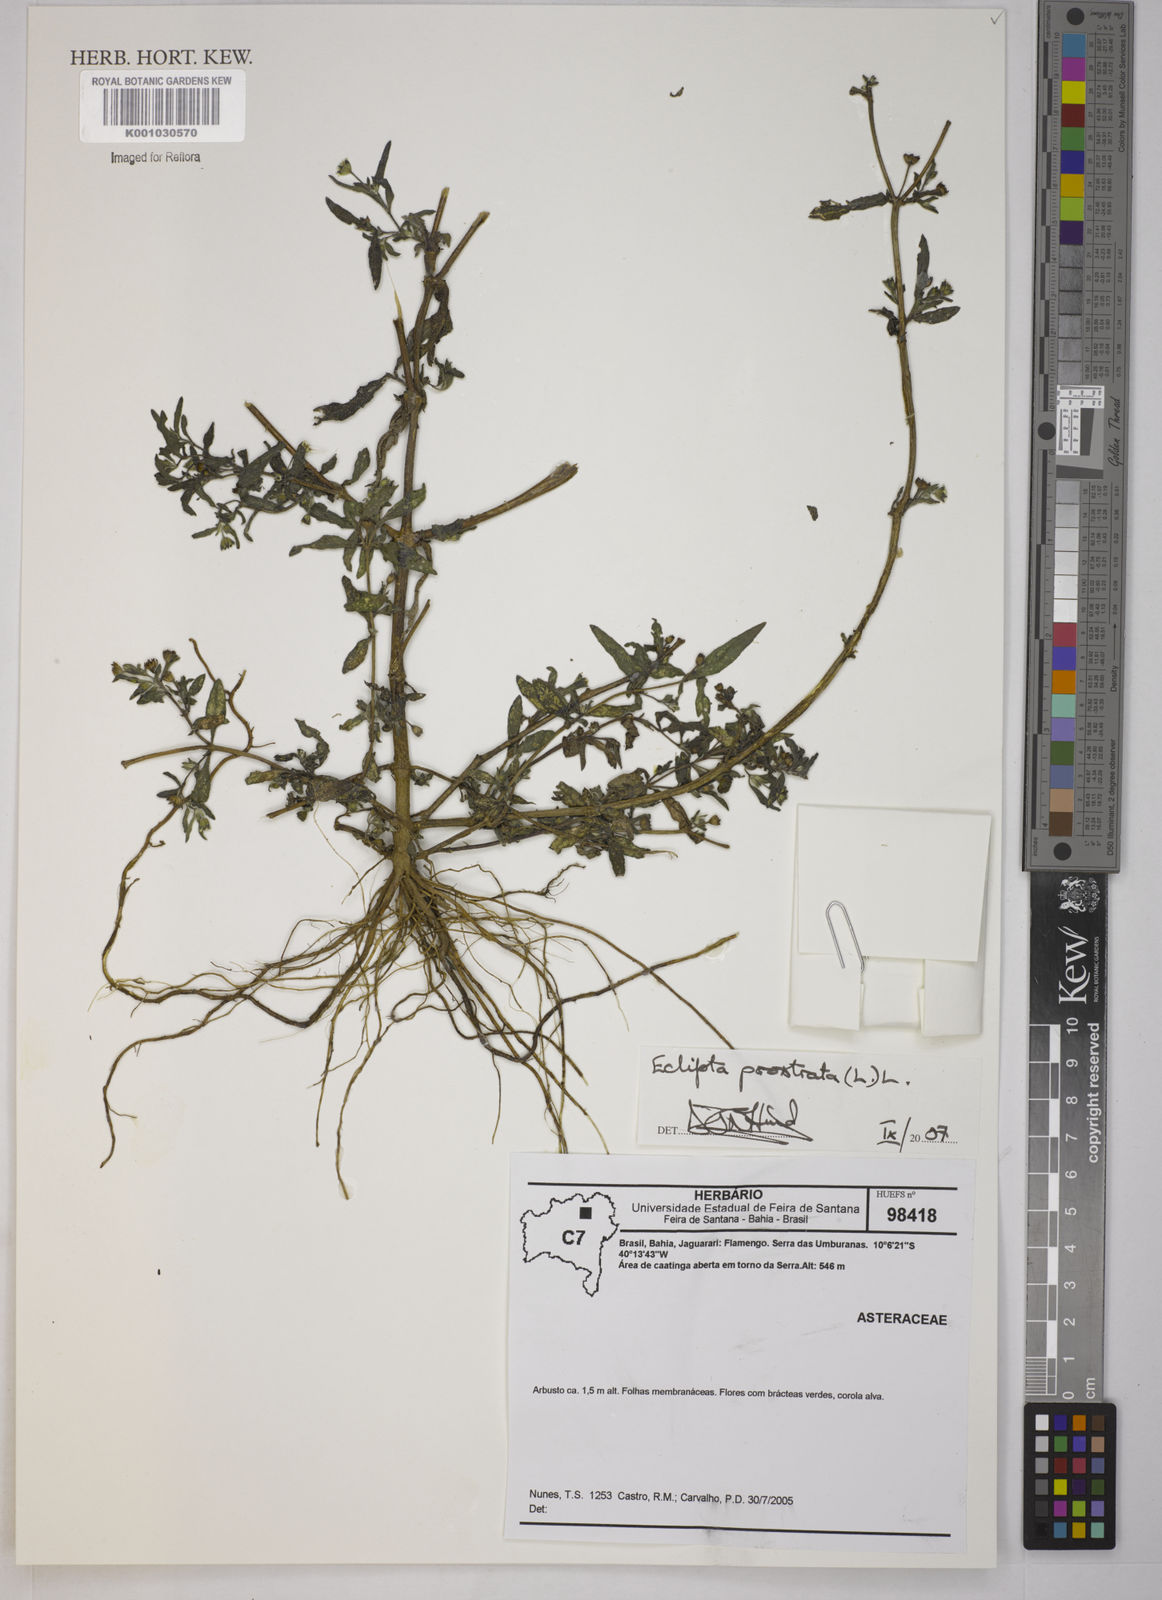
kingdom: Plantae
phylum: Tracheophyta
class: Magnoliopsida
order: Asterales
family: Asteraceae
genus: Eclipta
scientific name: Eclipta prostrata
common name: False daisy
